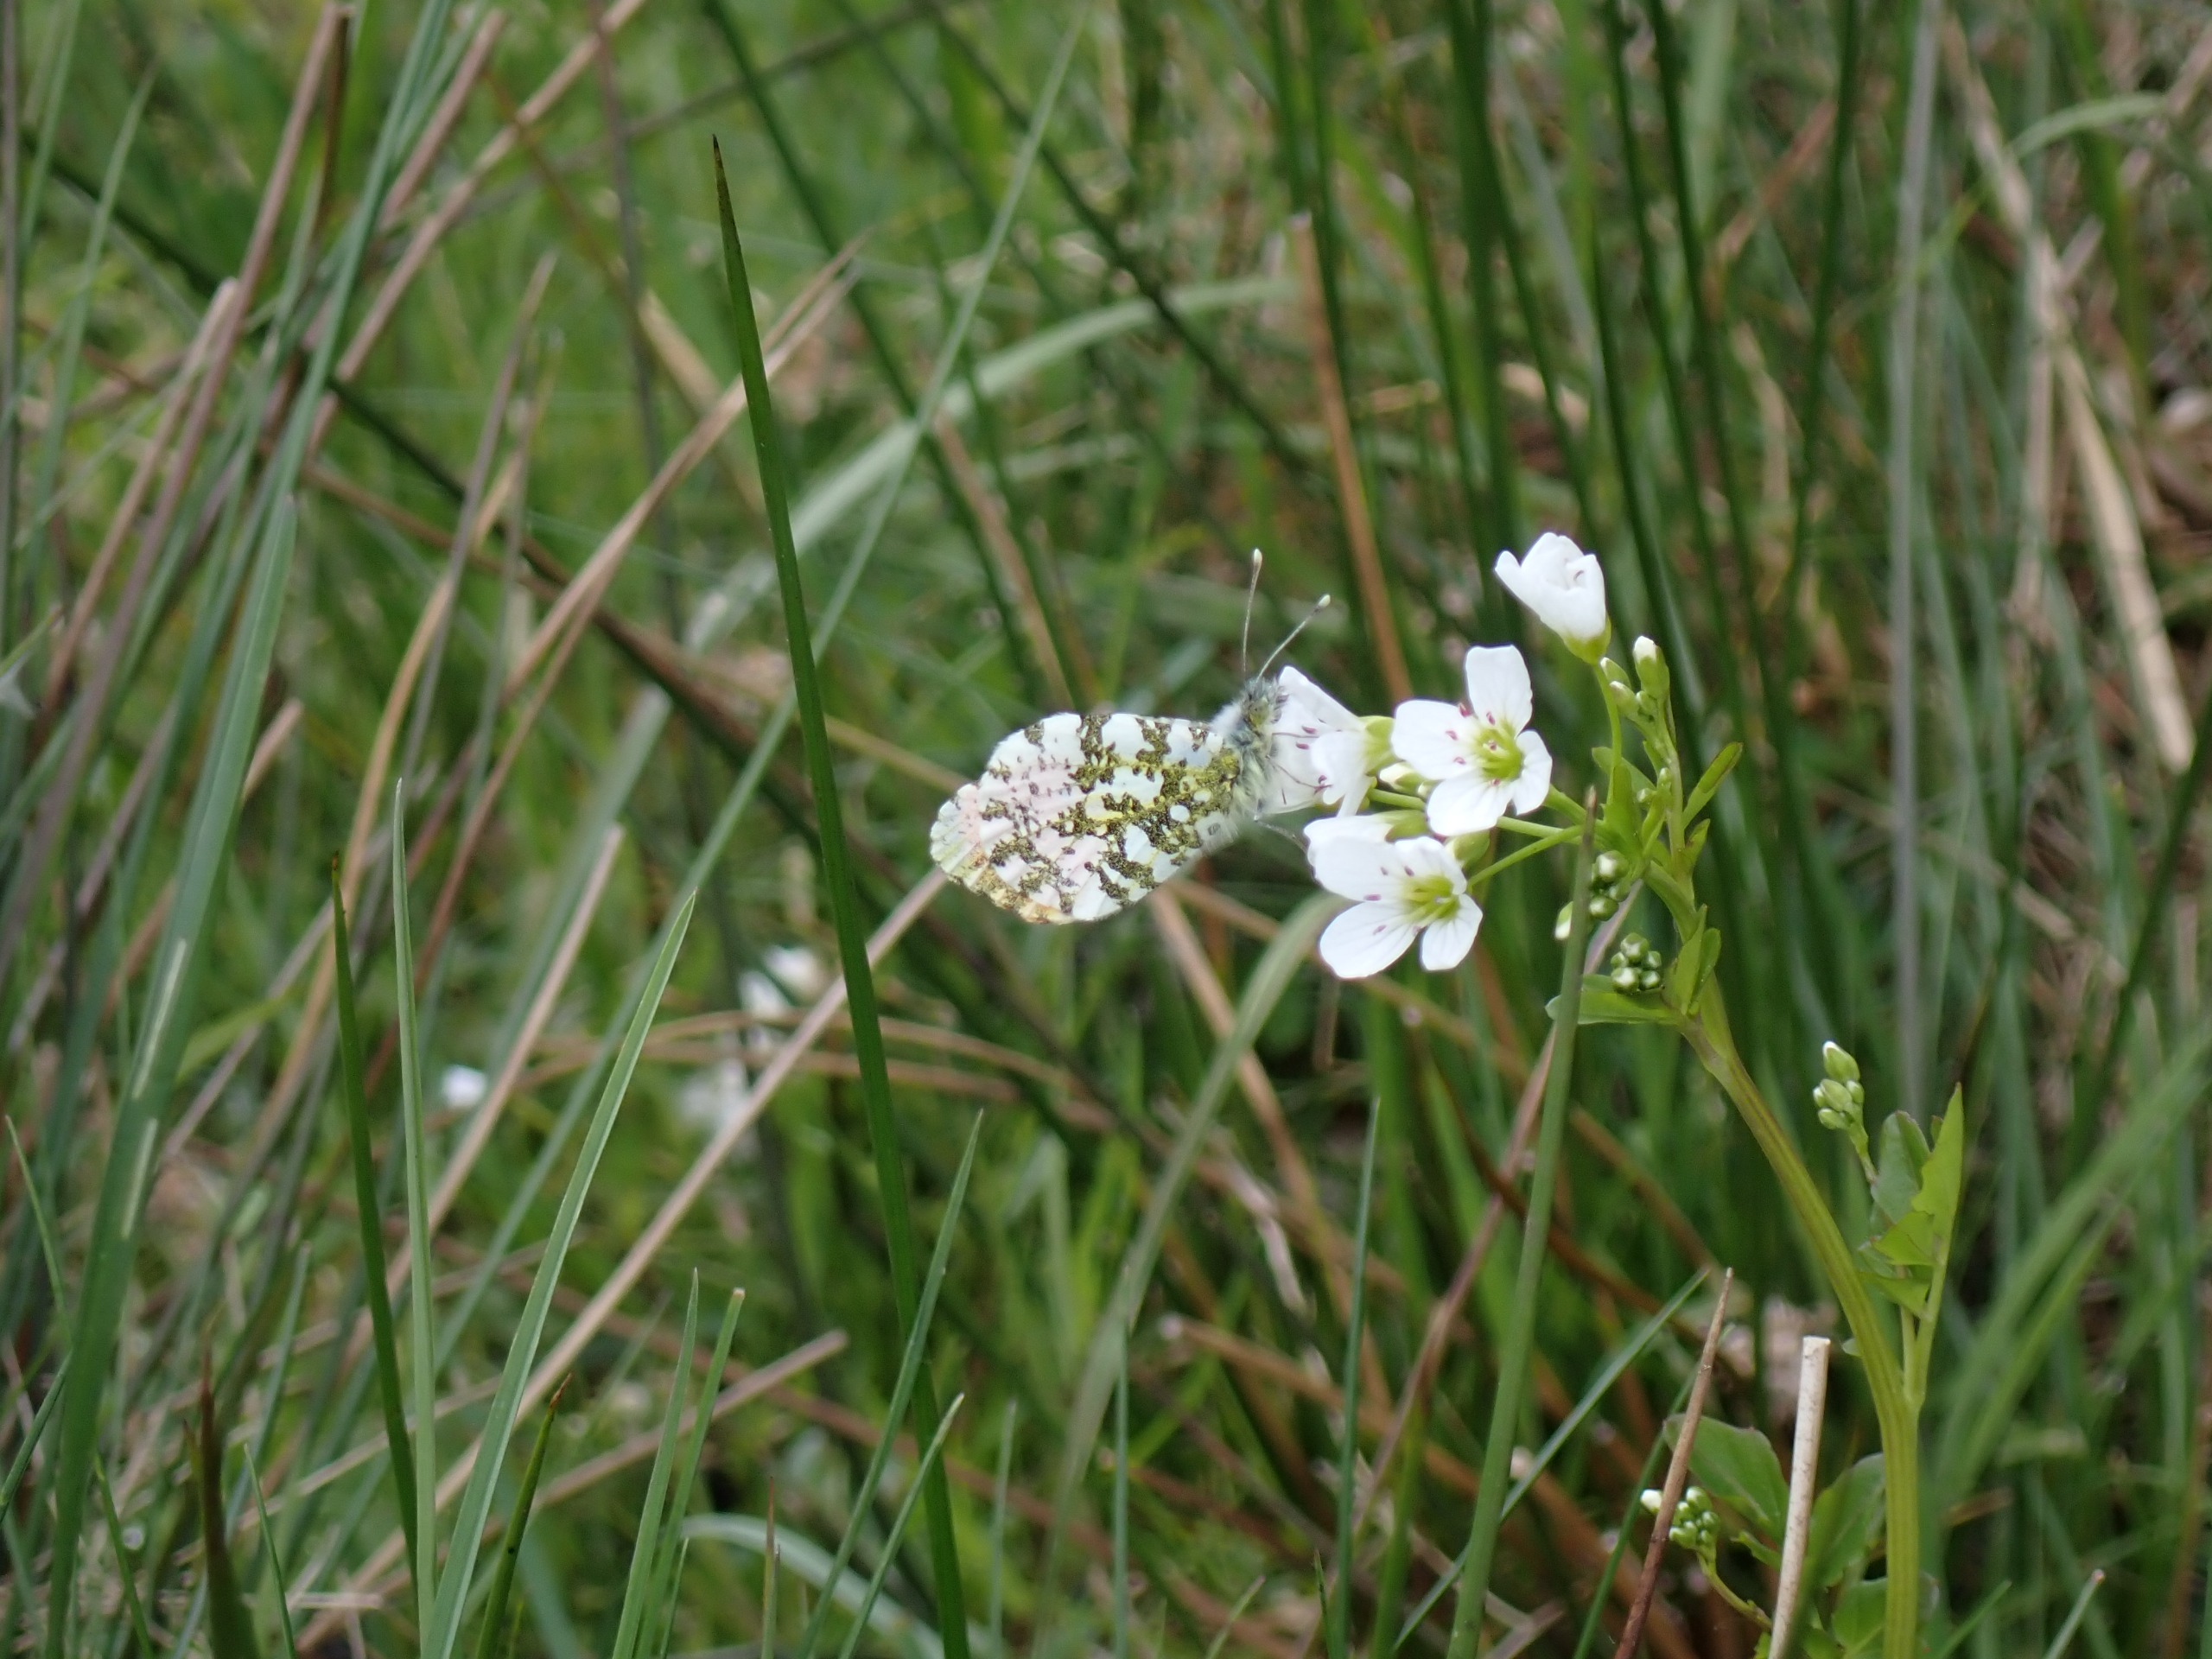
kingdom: Animalia
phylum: Arthropoda
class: Insecta
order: Lepidoptera
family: Pieridae
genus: Anthocharis
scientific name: Anthocharis cardamines
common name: Aurora
